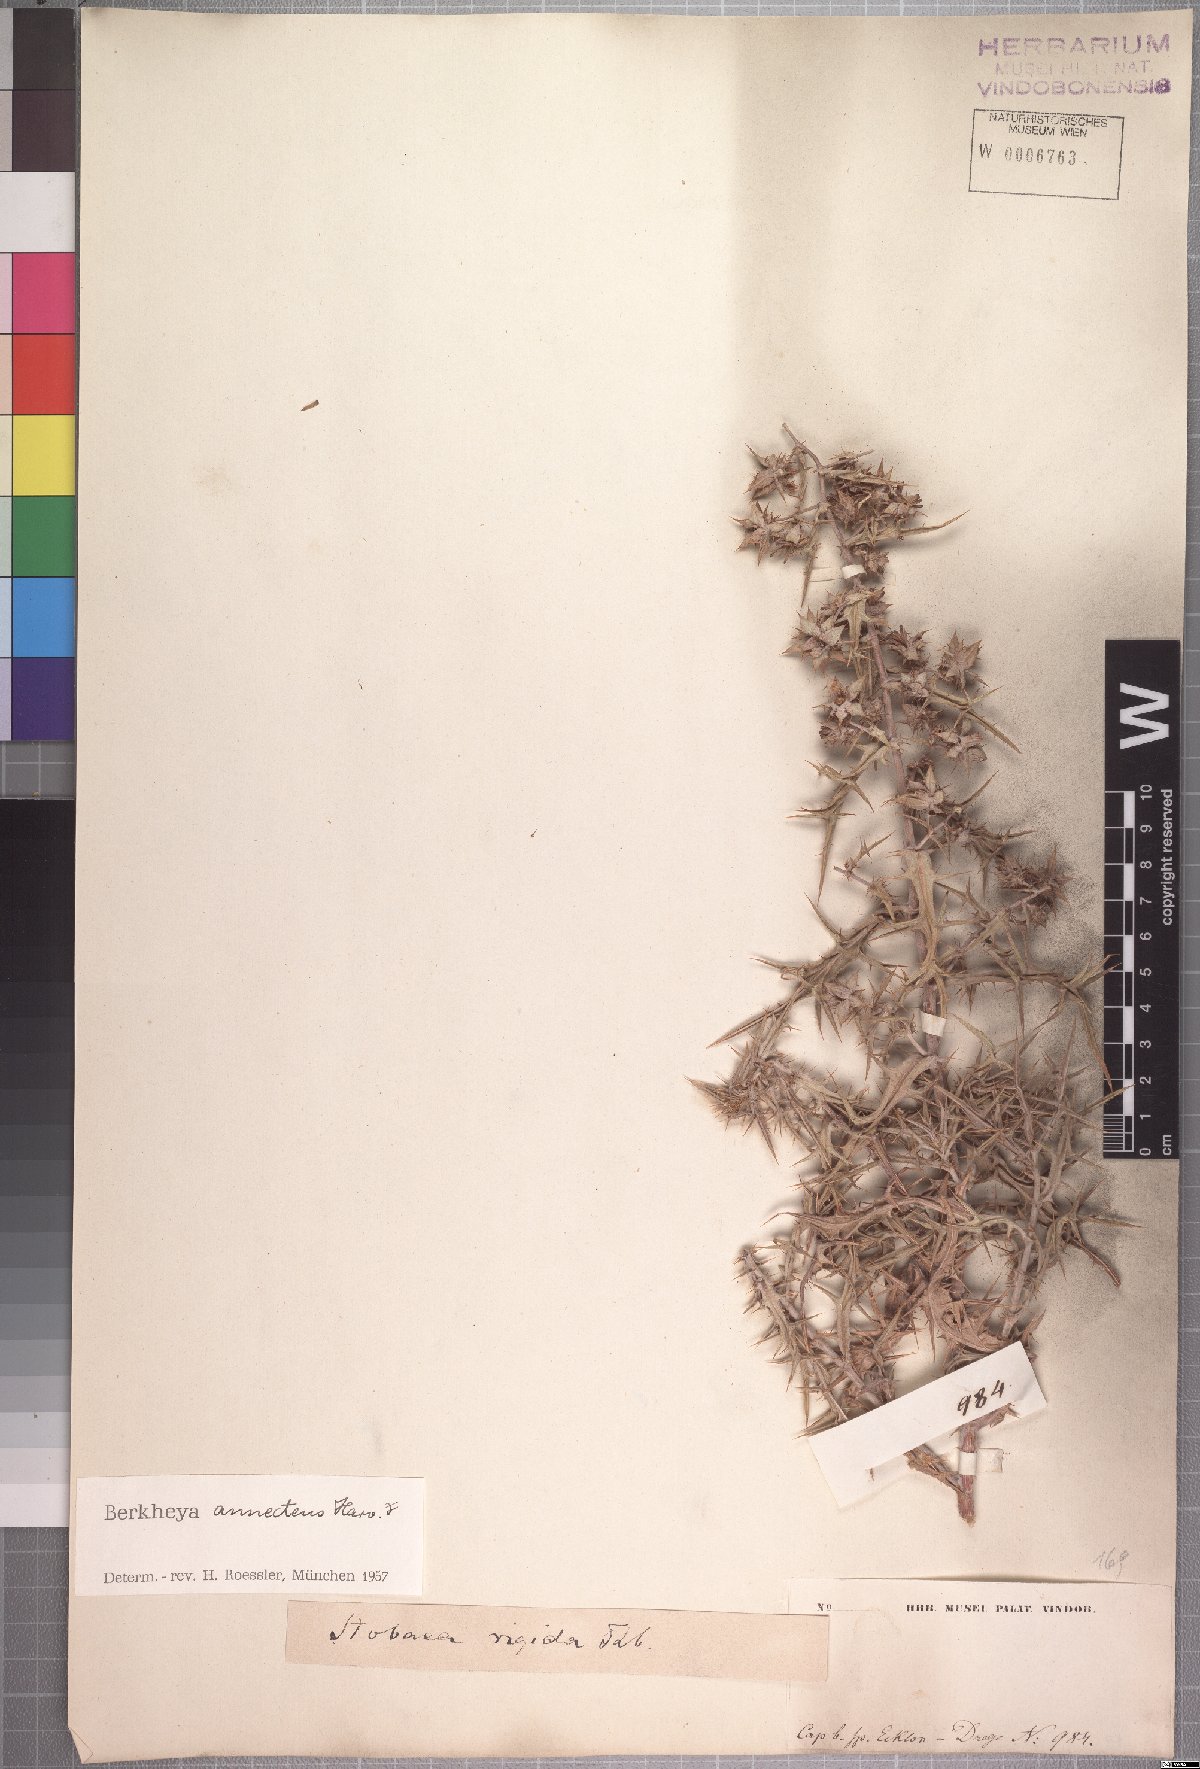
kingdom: Plantae
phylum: Tracheophyta
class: Magnoliopsida
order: Asterales
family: Asteraceae
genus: Berkheya
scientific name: Berkheya annectens
